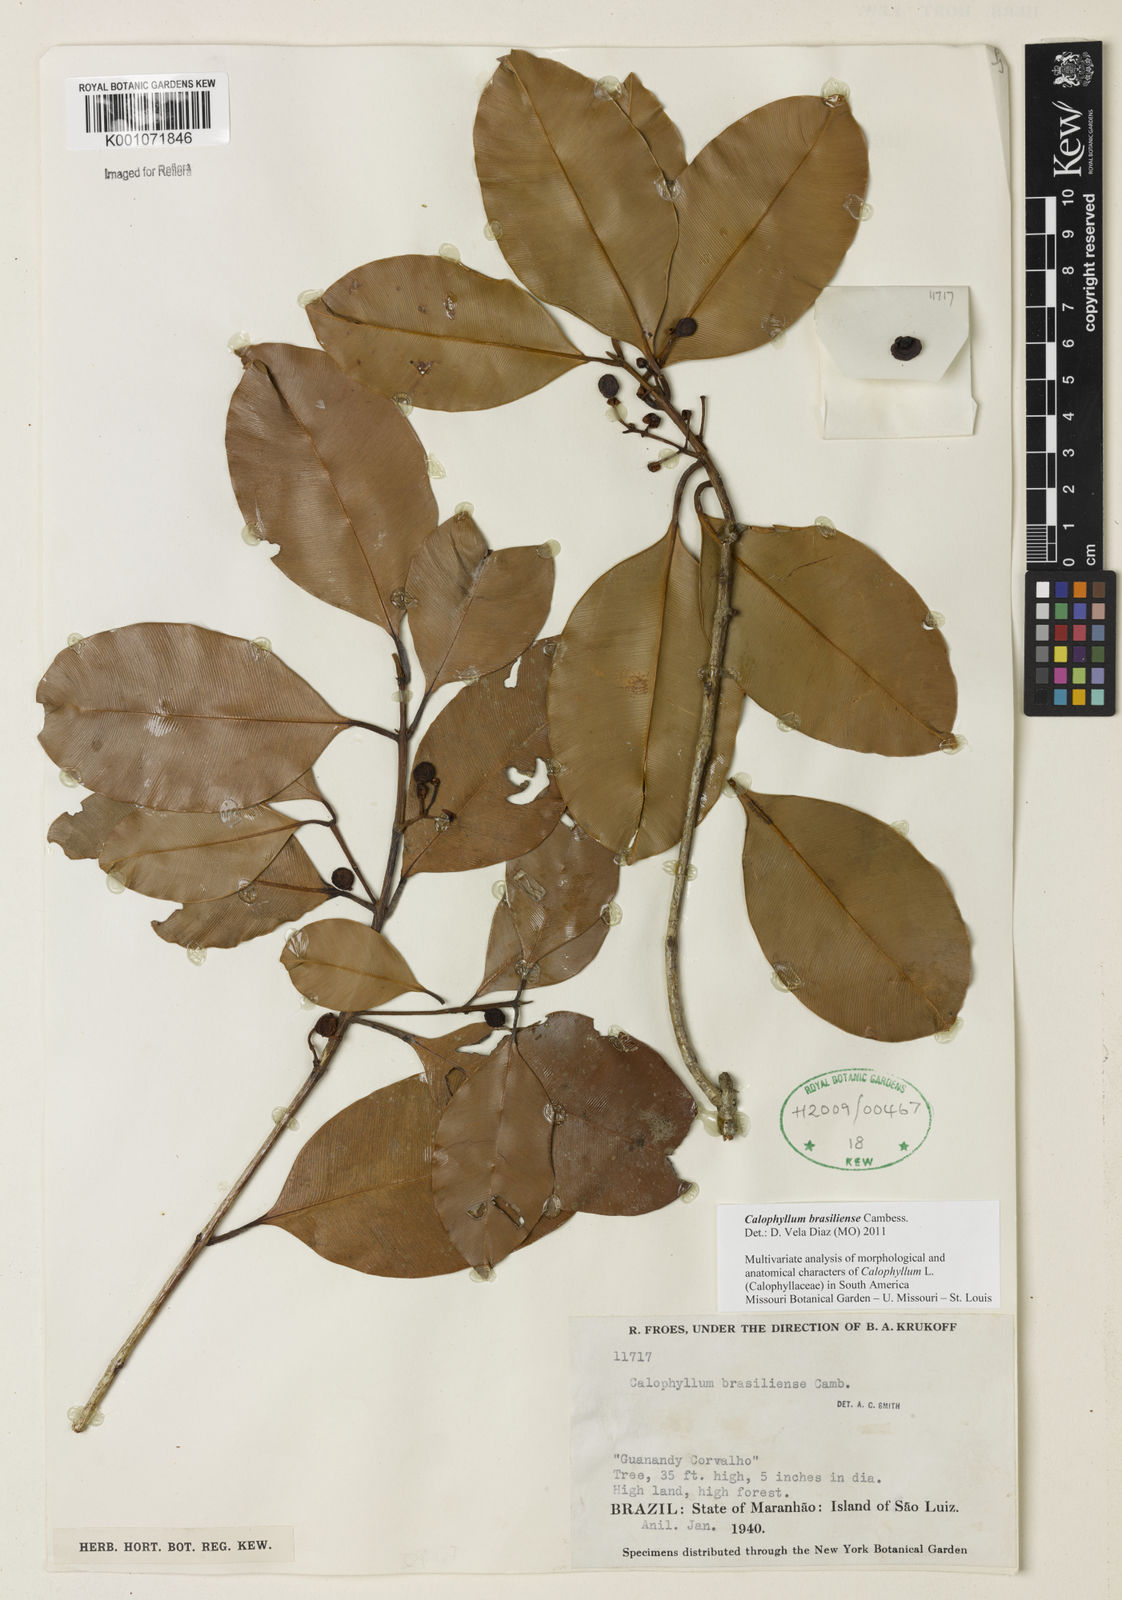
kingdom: Plantae
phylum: Tracheophyta
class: Magnoliopsida
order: Malpighiales
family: Calophyllaceae
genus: Calophyllum
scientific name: Calophyllum brasiliense
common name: Santa maria
